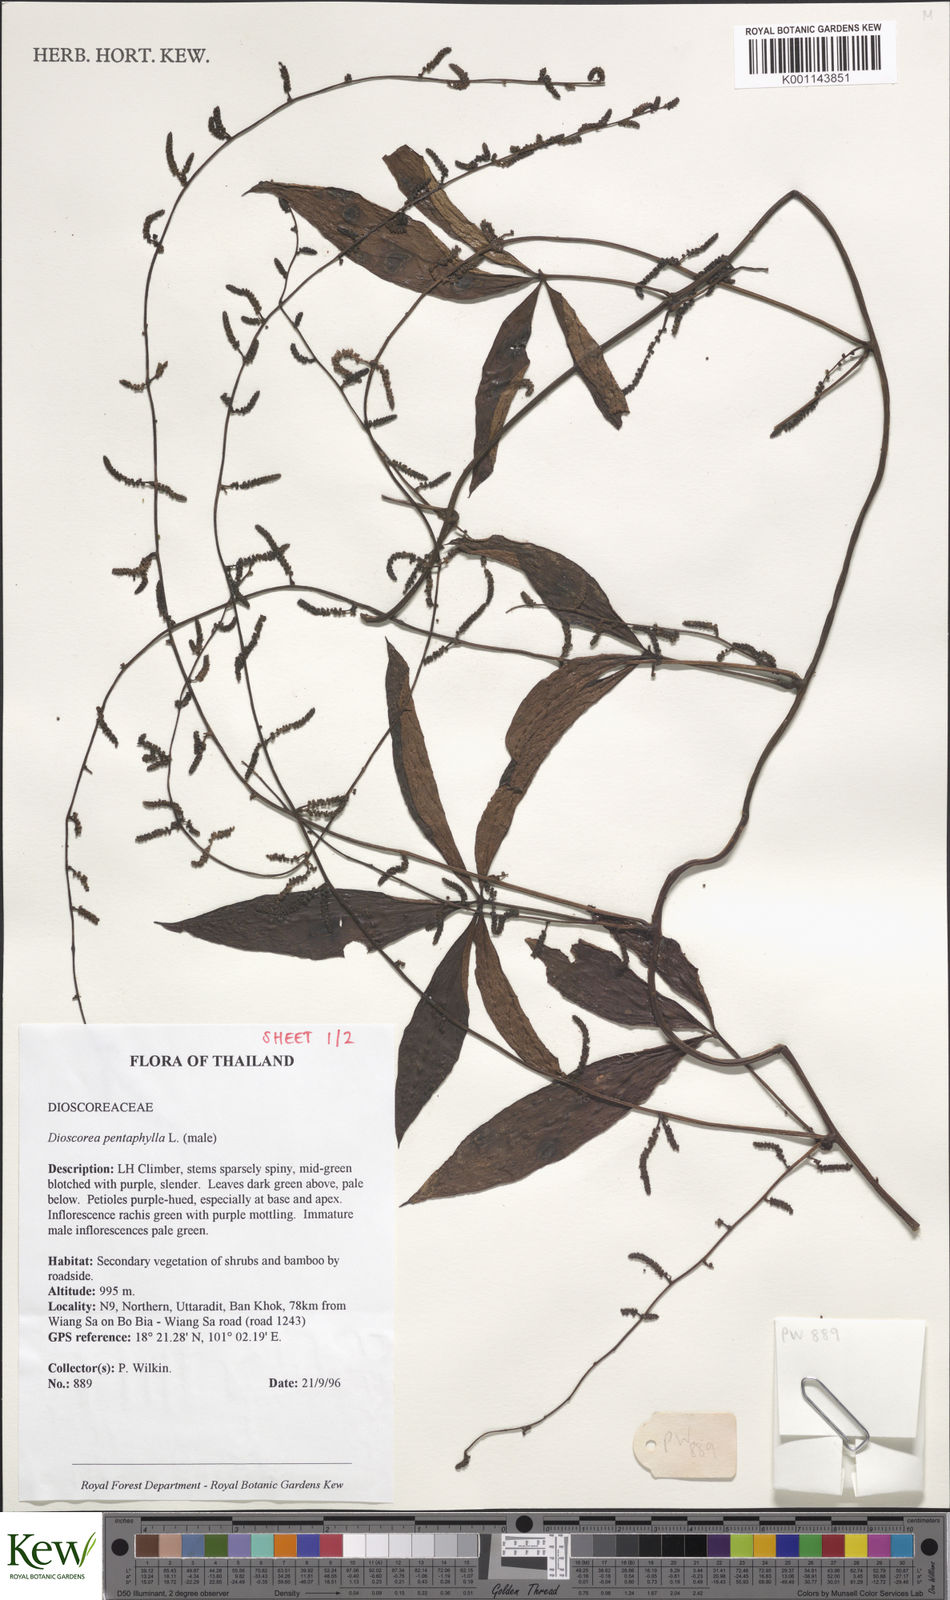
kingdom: Plantae
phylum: Tracheophyta
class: Liliopsida
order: Dioscoreales
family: Dioscoreaceae
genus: Dioscorea
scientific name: Dioscorea pentaphylla
